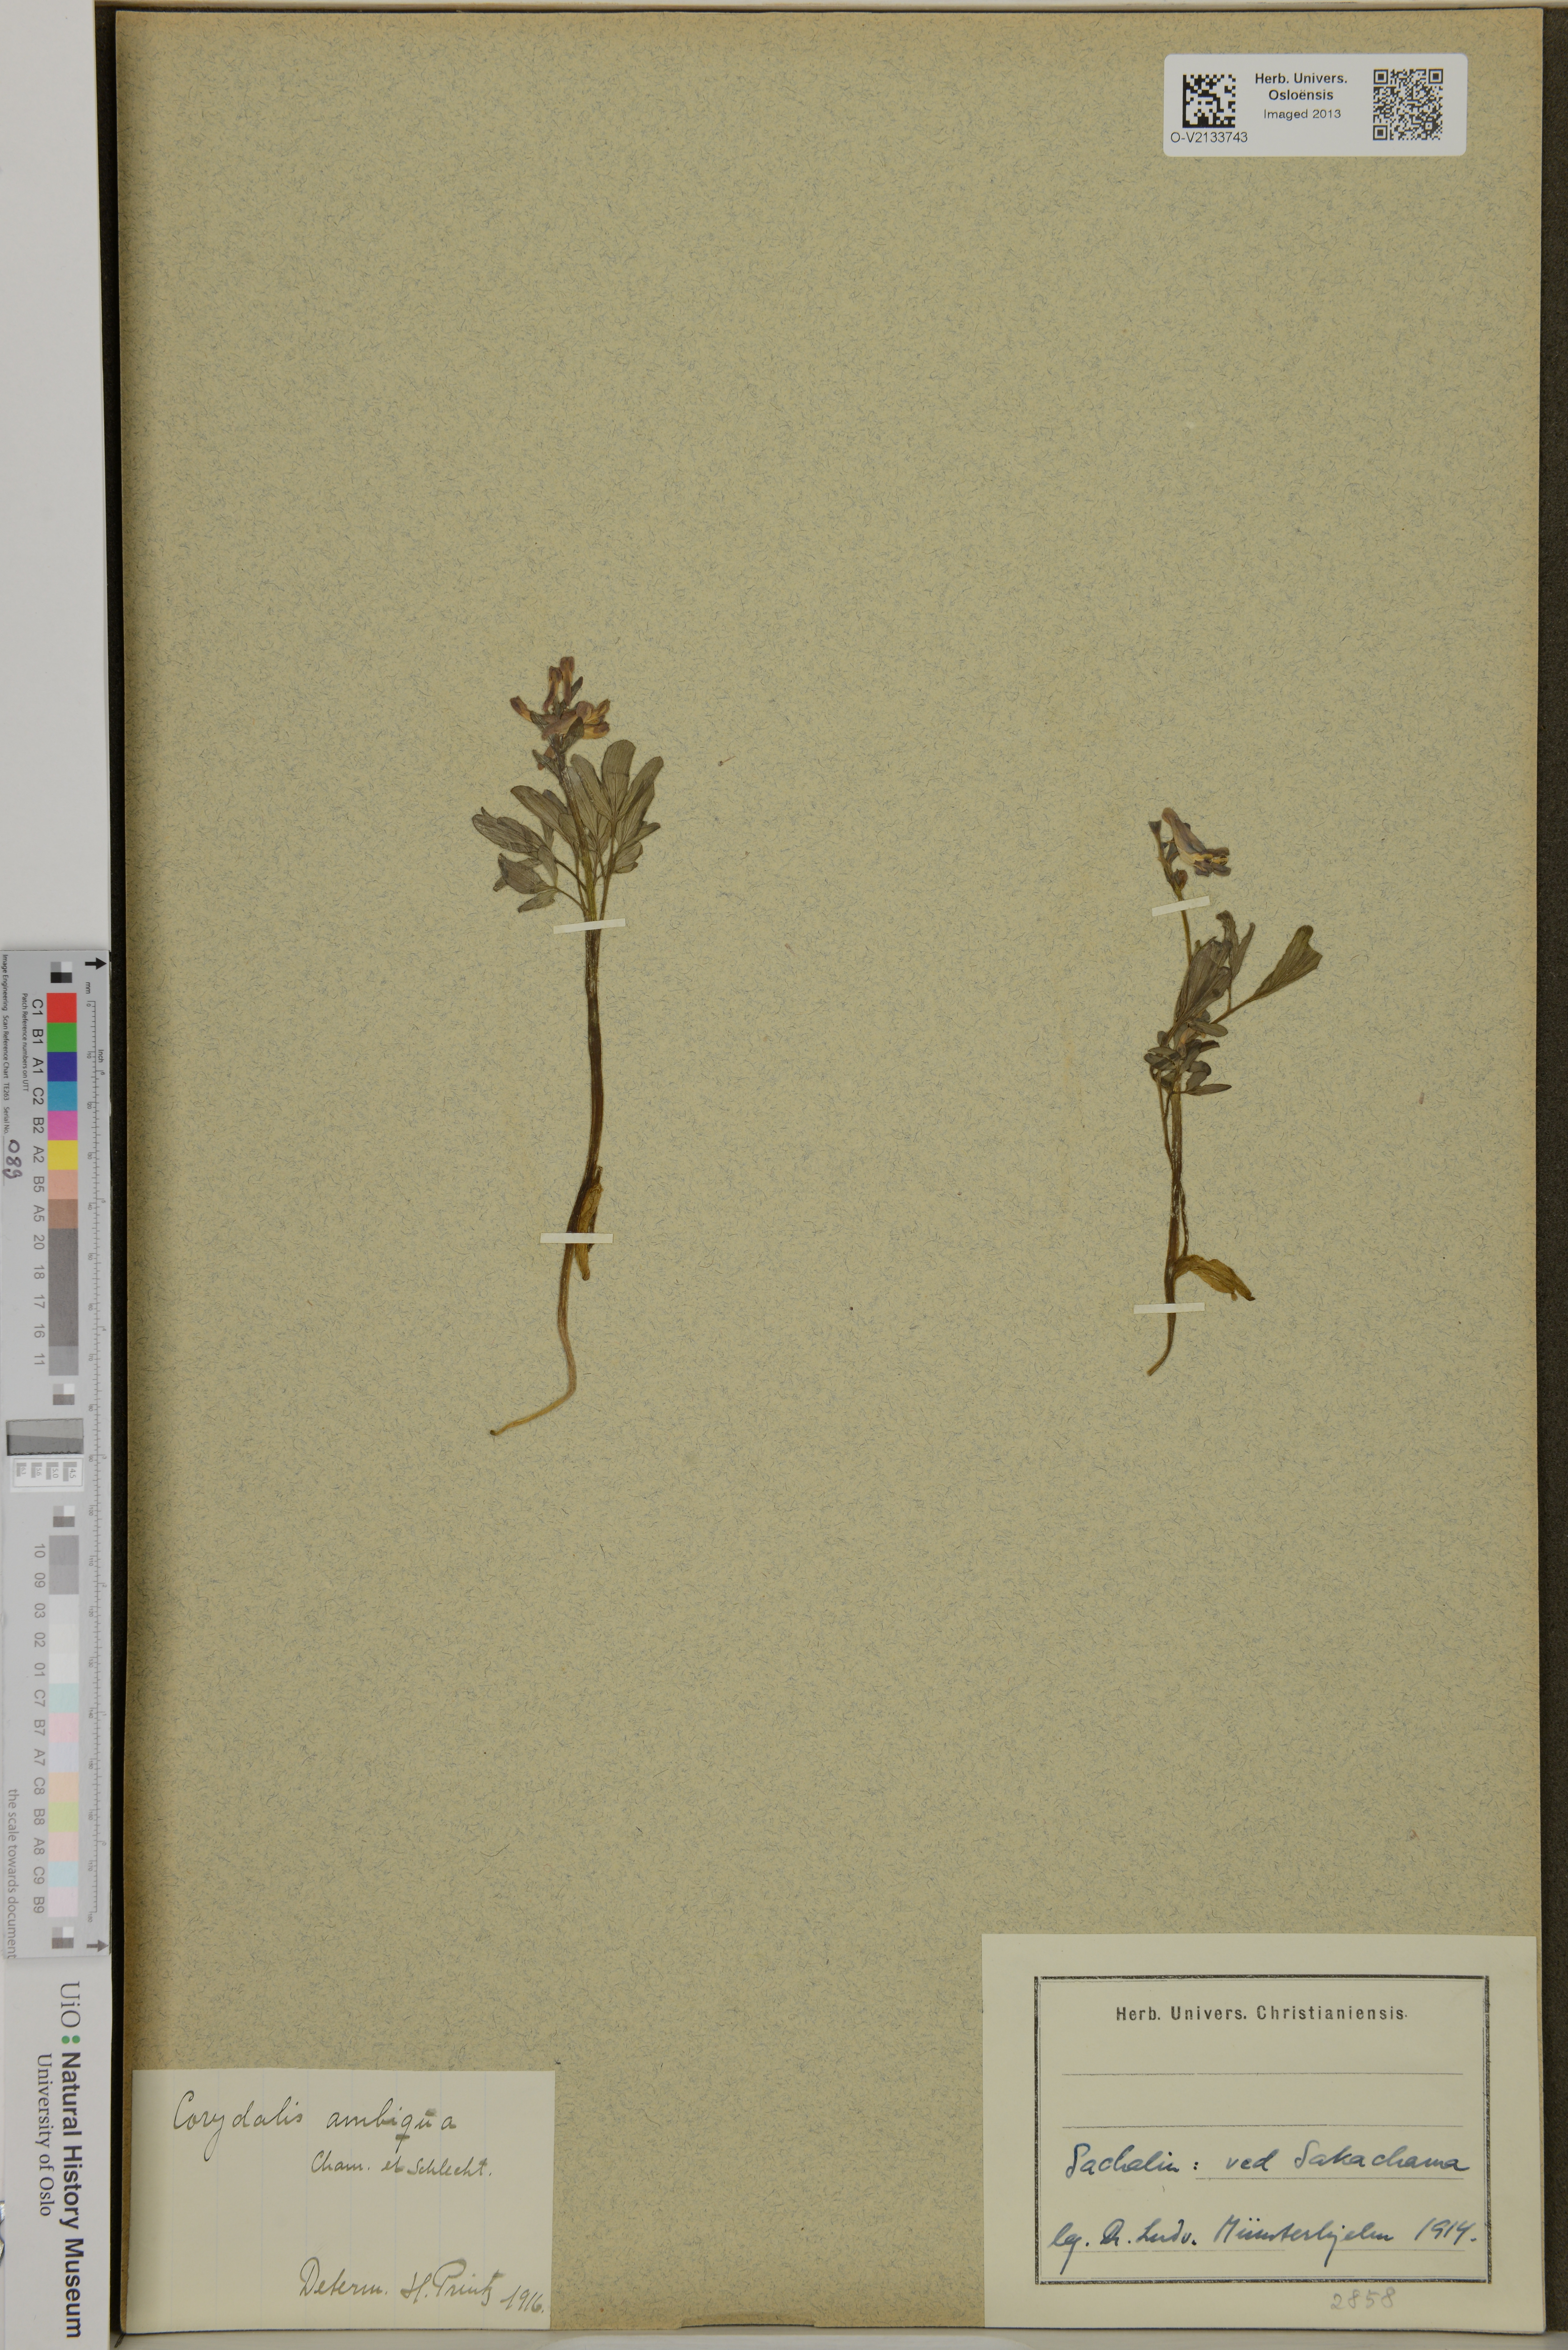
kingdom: Plantae
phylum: Tracheophyta
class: Magnoliopsida
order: Ranunculales
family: Papaveraceae
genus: Corydalis
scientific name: Corydalis ambigua
